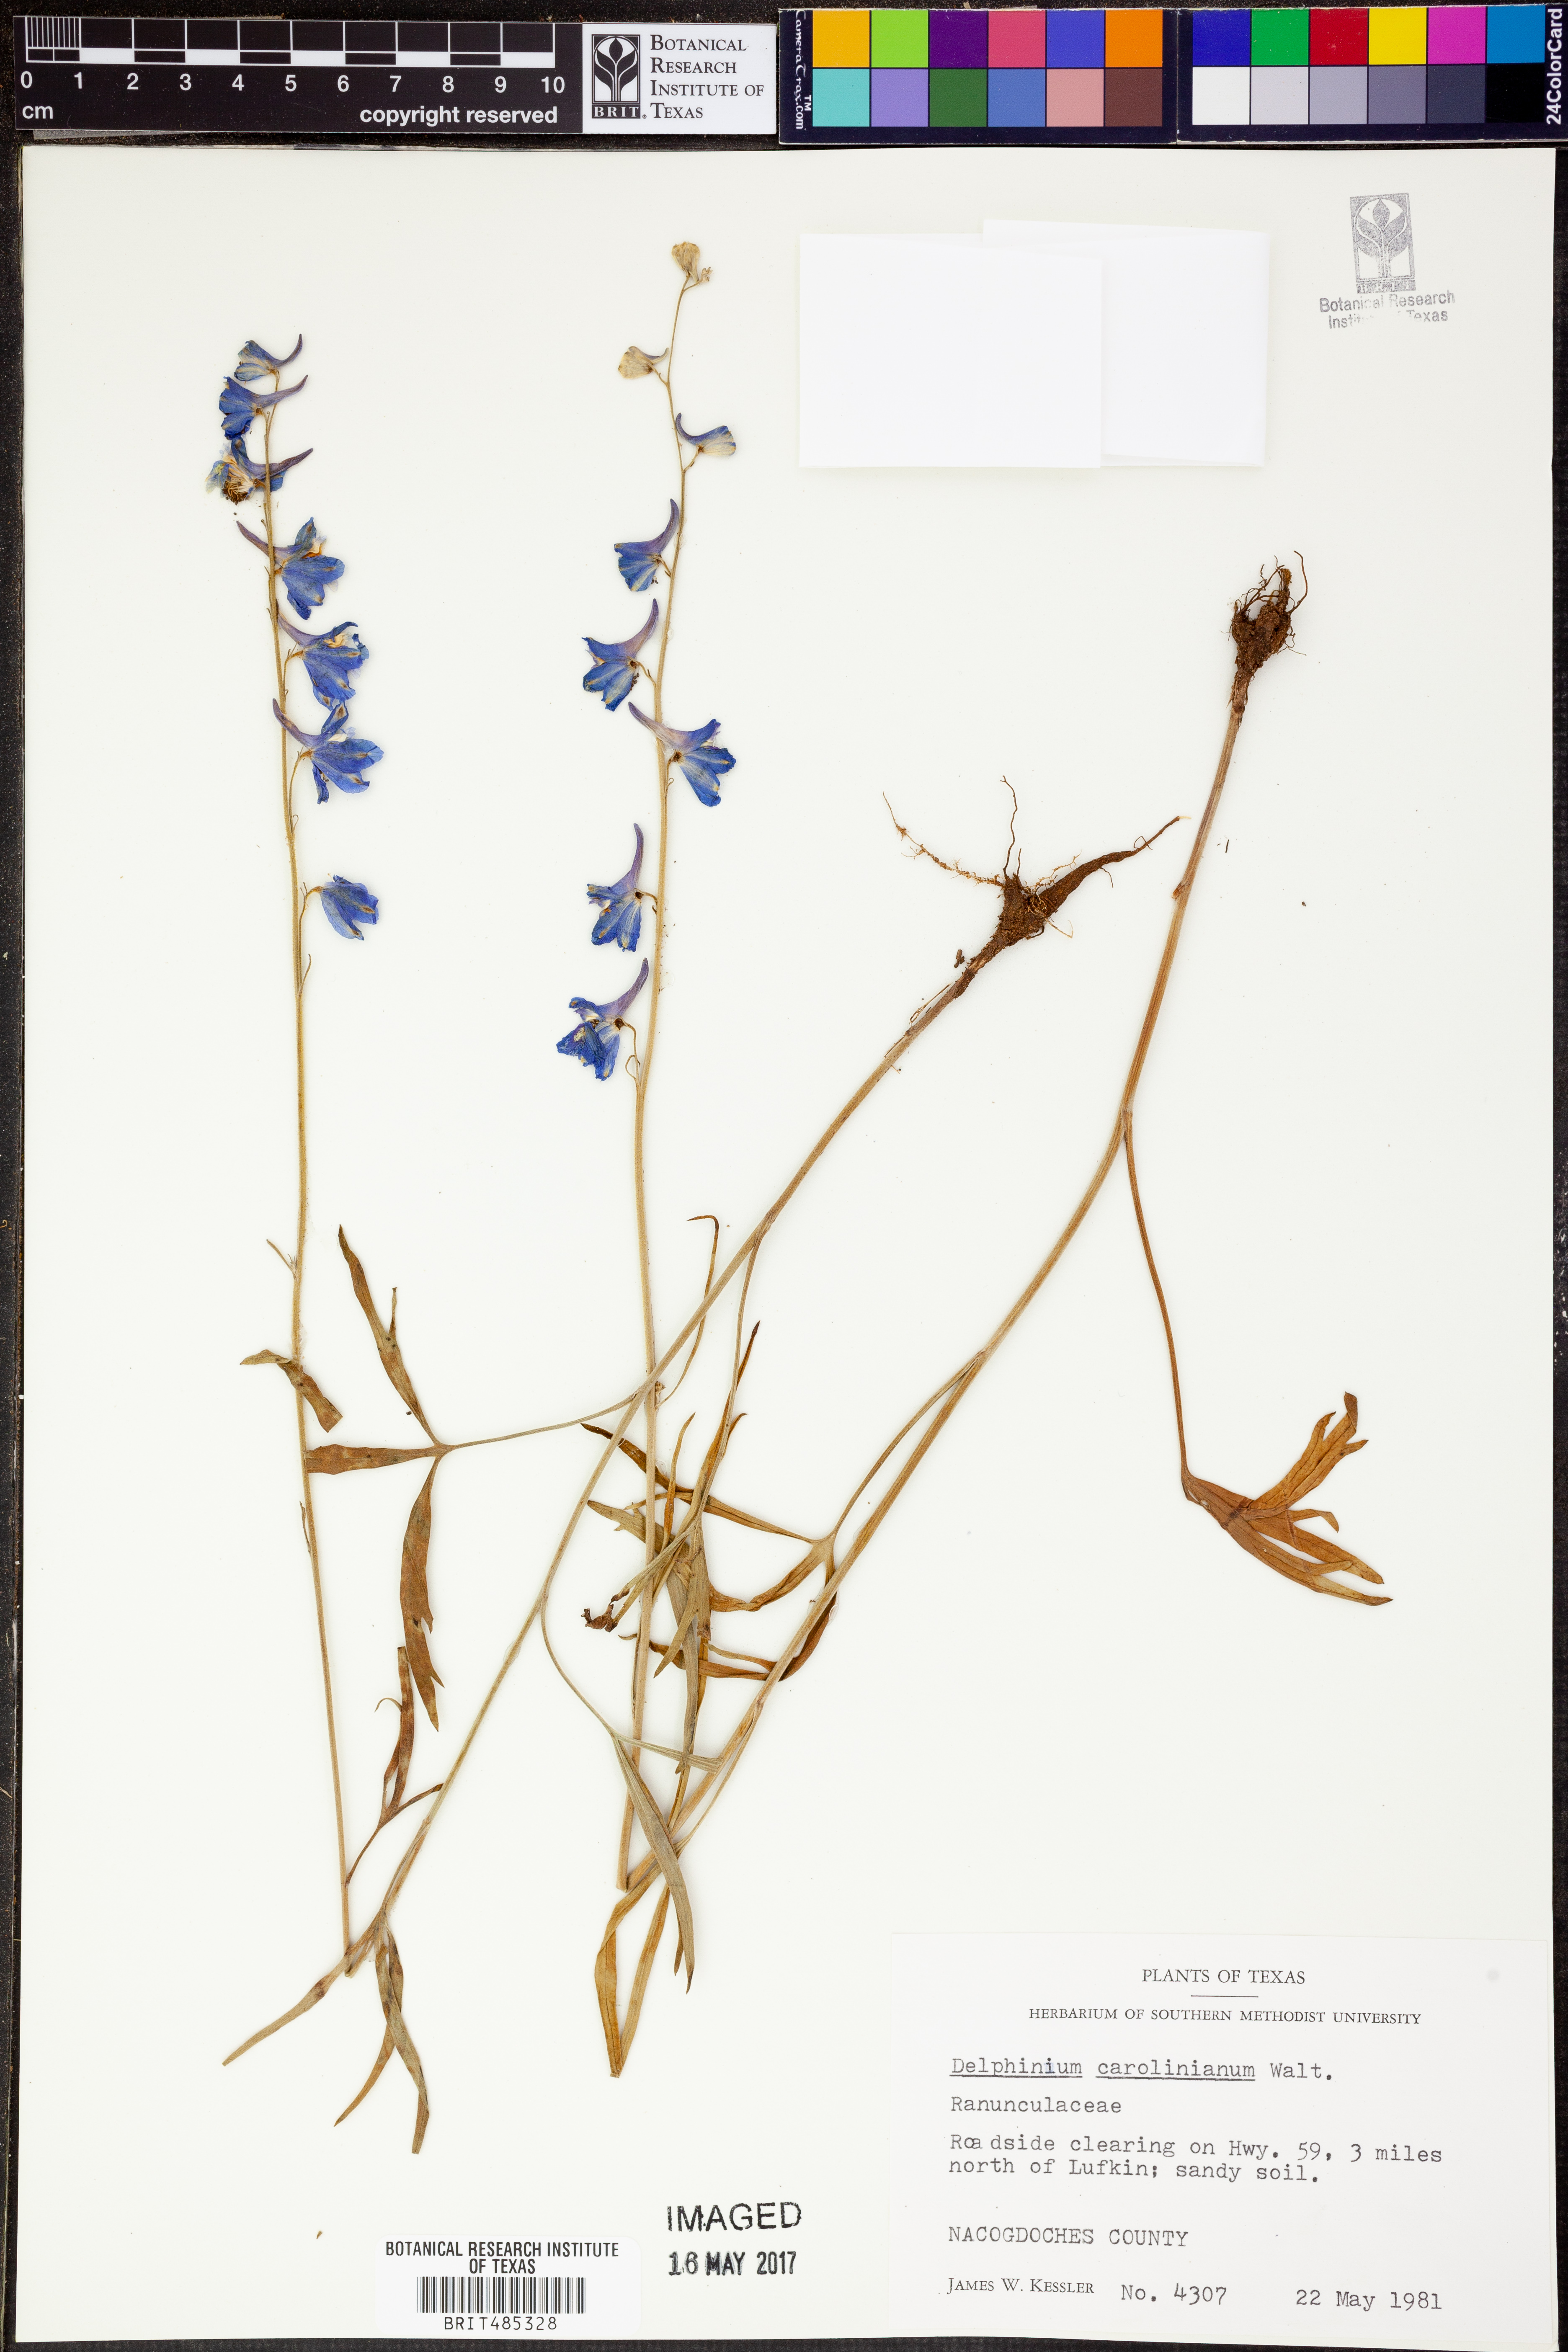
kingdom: Plantae
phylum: Tracheophyta
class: Magnoliopsida
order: Ranunculales
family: Ranunculaceae
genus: Delphinium
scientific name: Delphinium carolinianum
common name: Carolina larkspur
